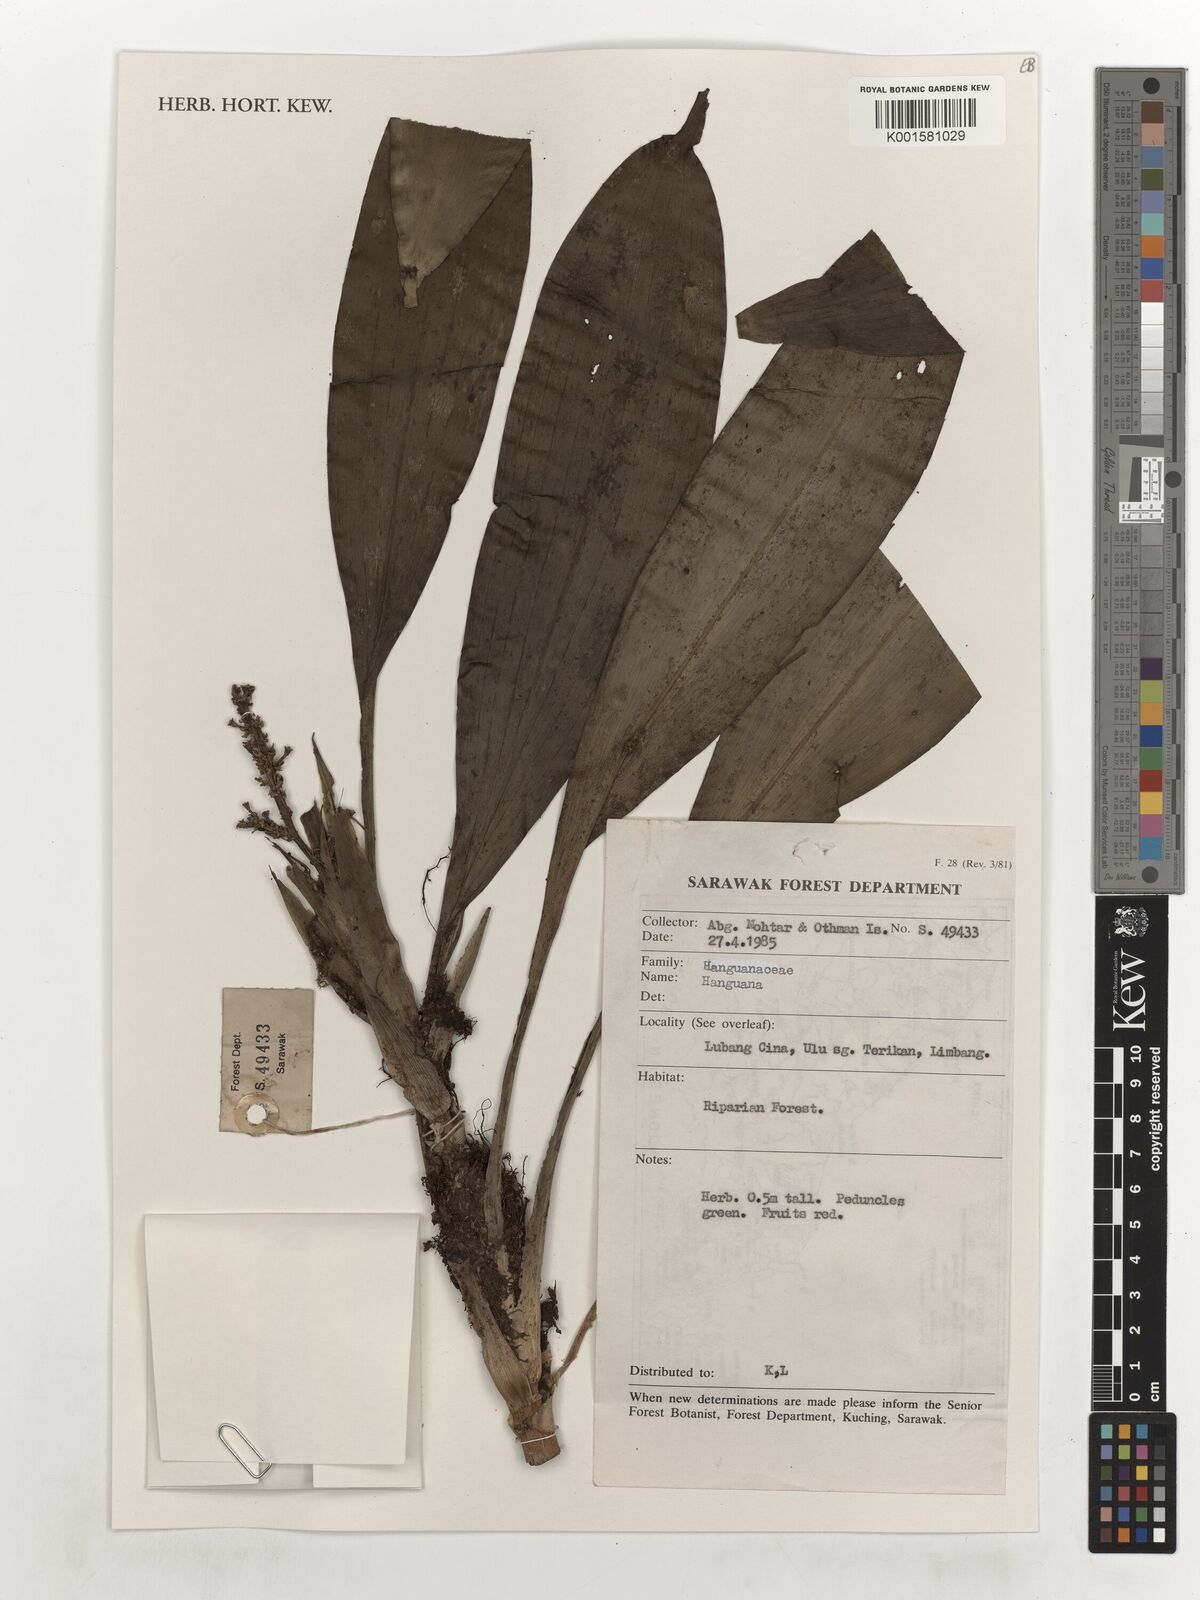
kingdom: Plantae
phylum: Tracheophyta
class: Liliopsida
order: Commelinales
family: Hanguanaceae
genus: Hanguana
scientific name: Hanguana
